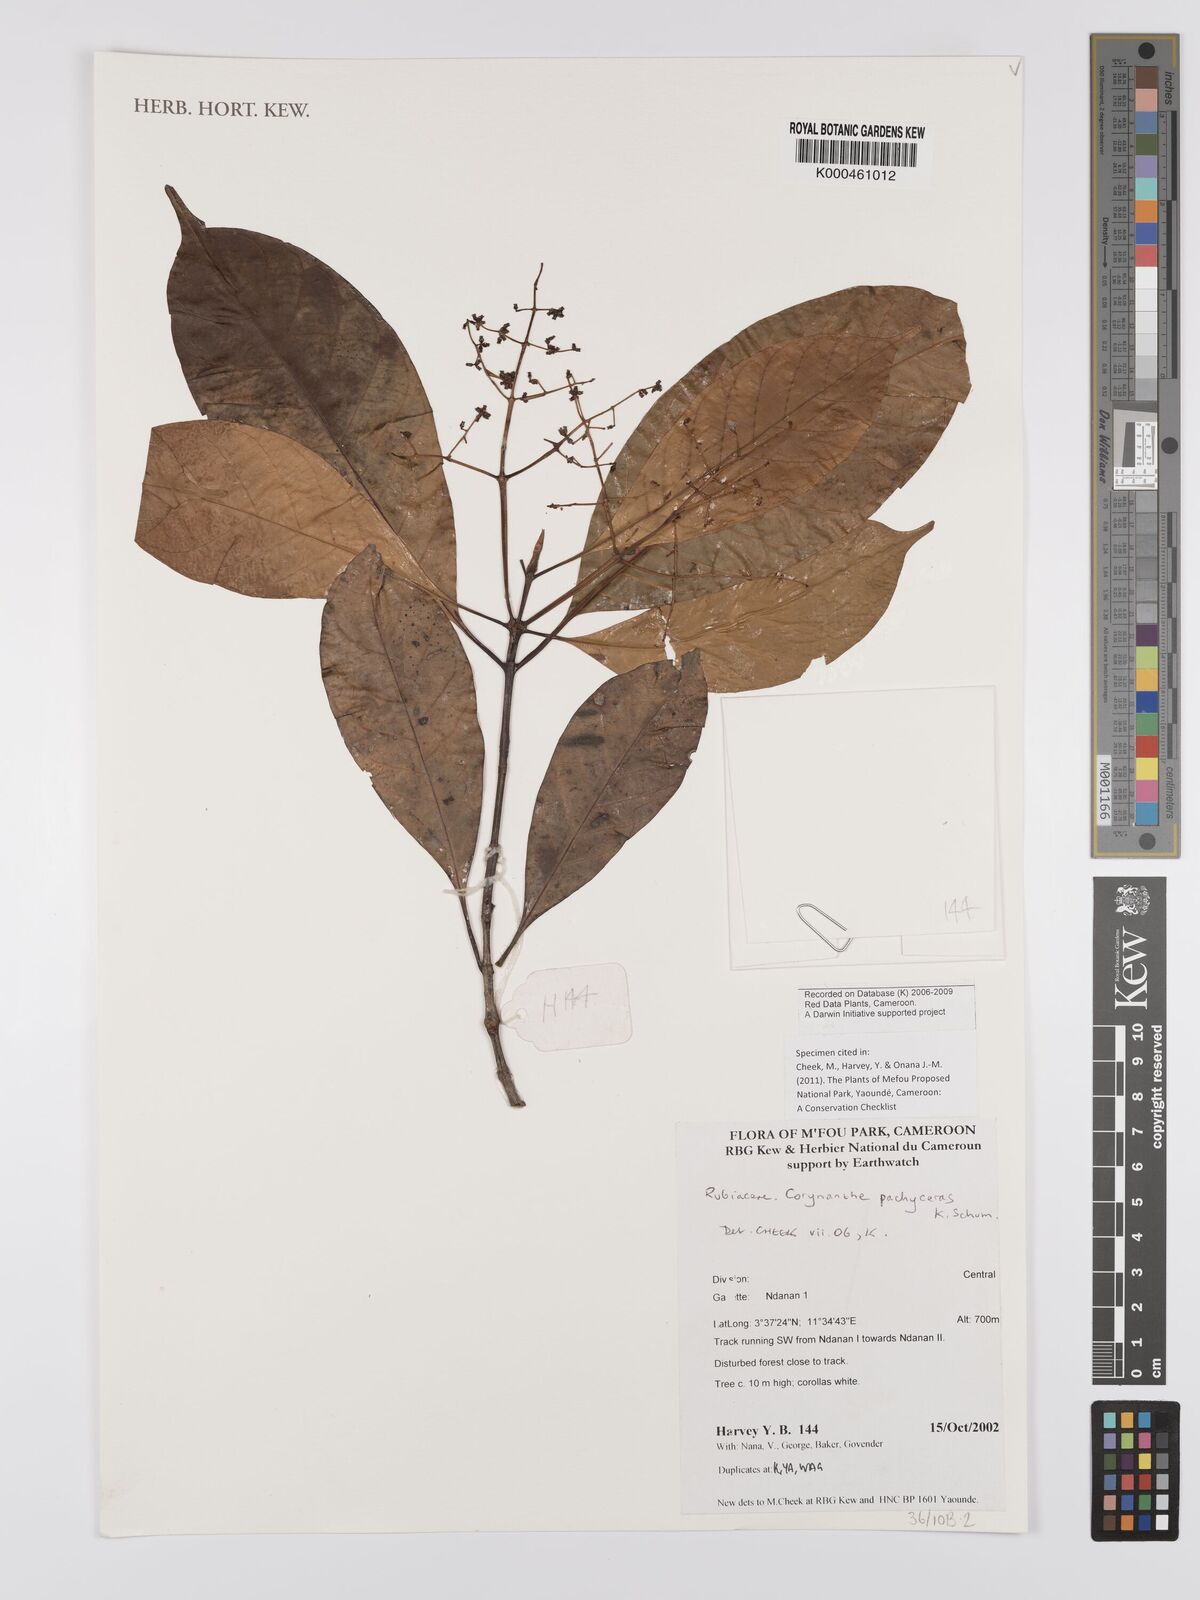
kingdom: Plantae
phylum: Tracheophyta
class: Magnoliopsida
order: Gentianales
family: Rubiaceae
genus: Corynanthe
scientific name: Corynanthe pachyceras
